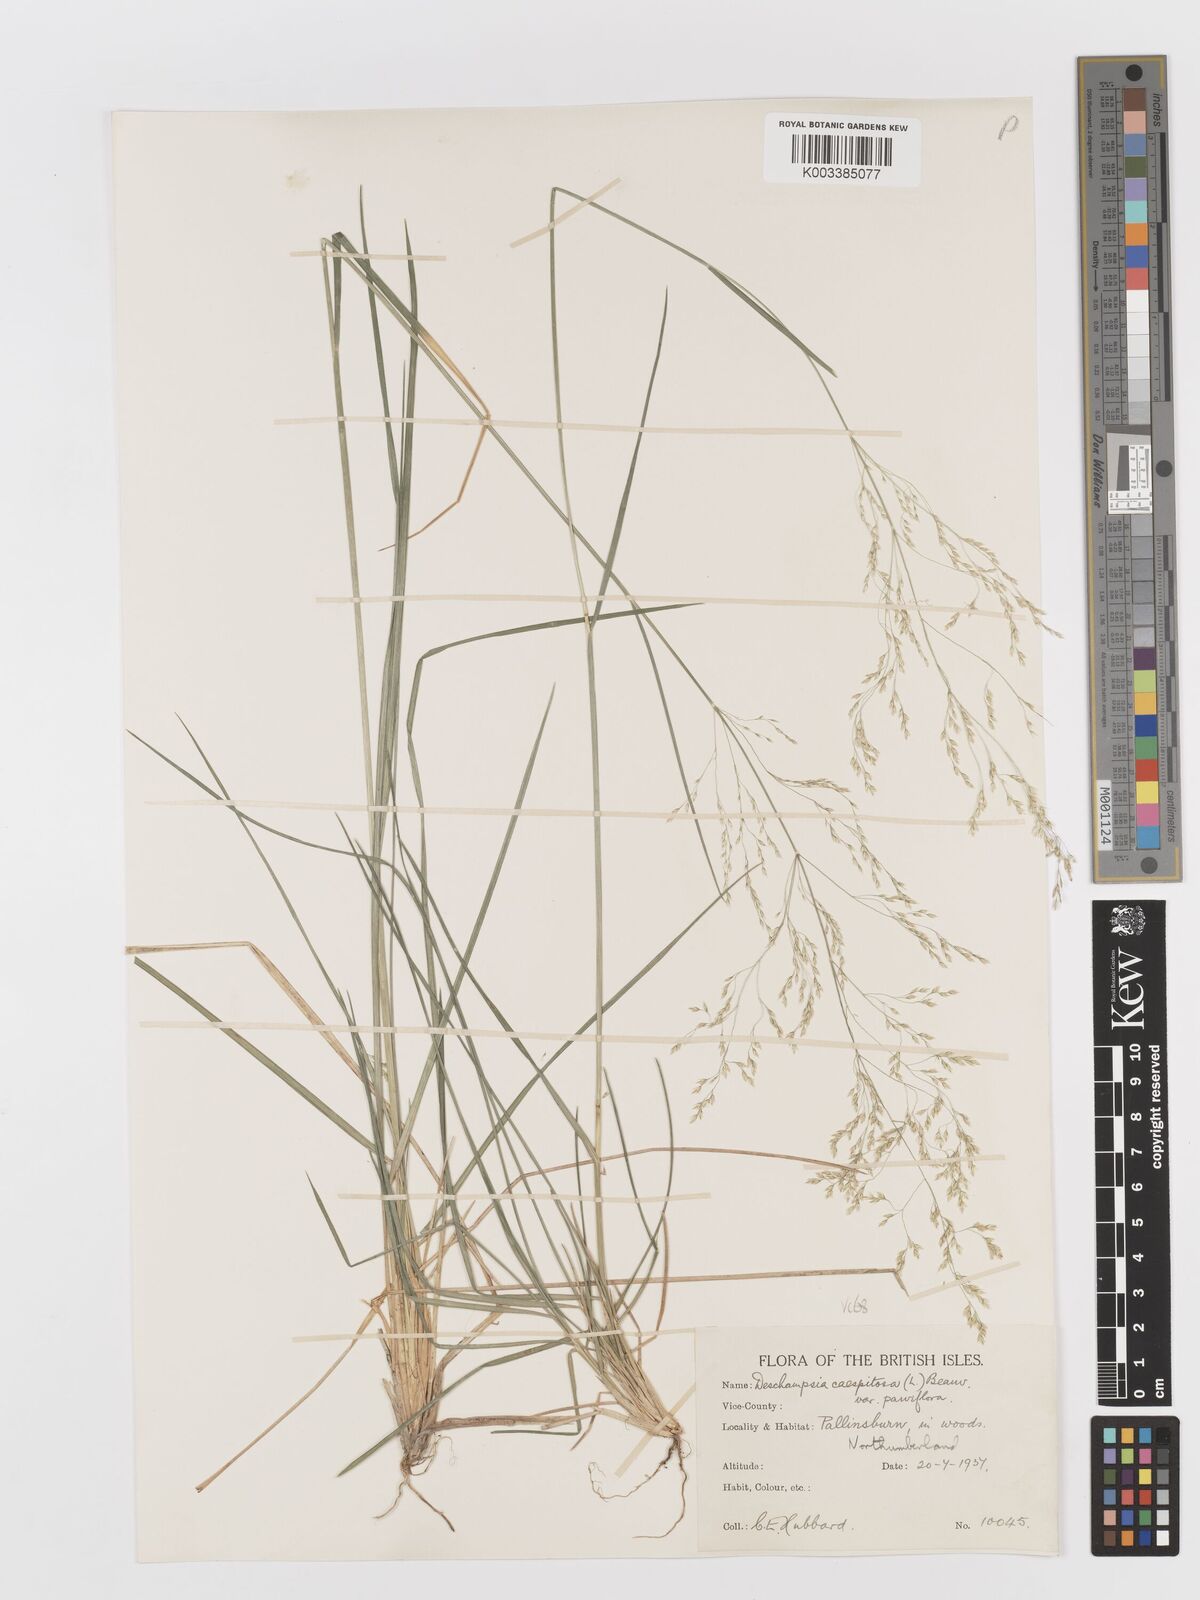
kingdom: Plantae
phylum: Tracheophyta
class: Liliopsida
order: Poales
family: Poaceae
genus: Deschampsia
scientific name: Deschampsia cespitosa
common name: Tufted hair-grass
